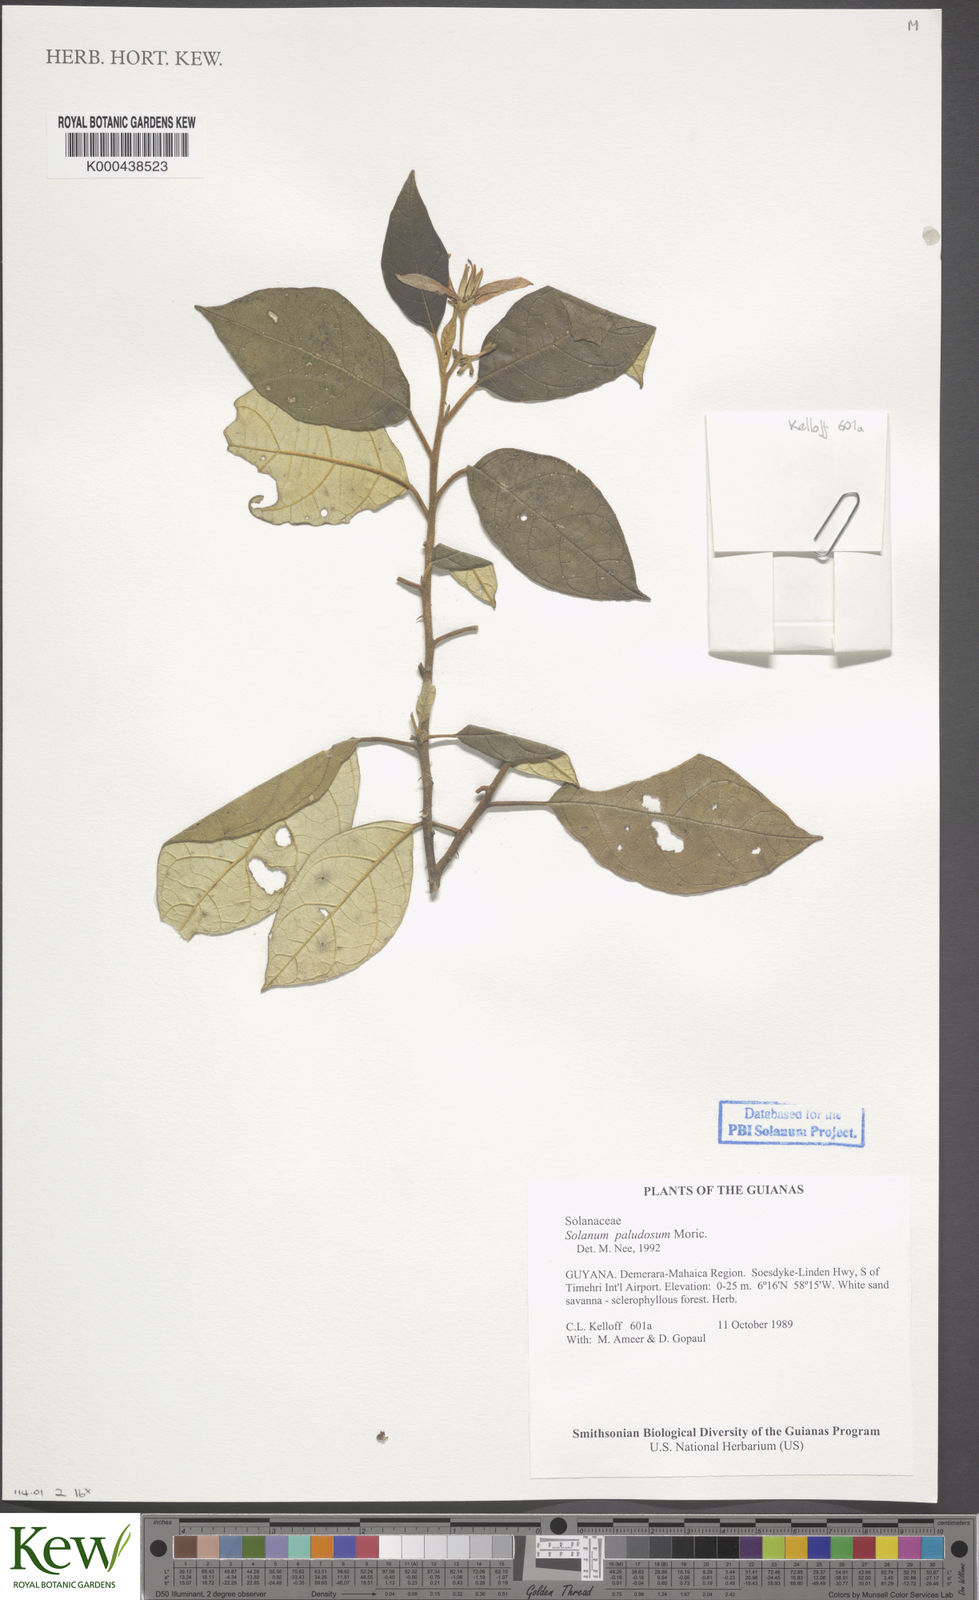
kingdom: Plantae
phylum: Tracheophyta
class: Magnoliopsida
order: Solanales
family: Solanaceae
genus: Solanum
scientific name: Solanum paludosum
